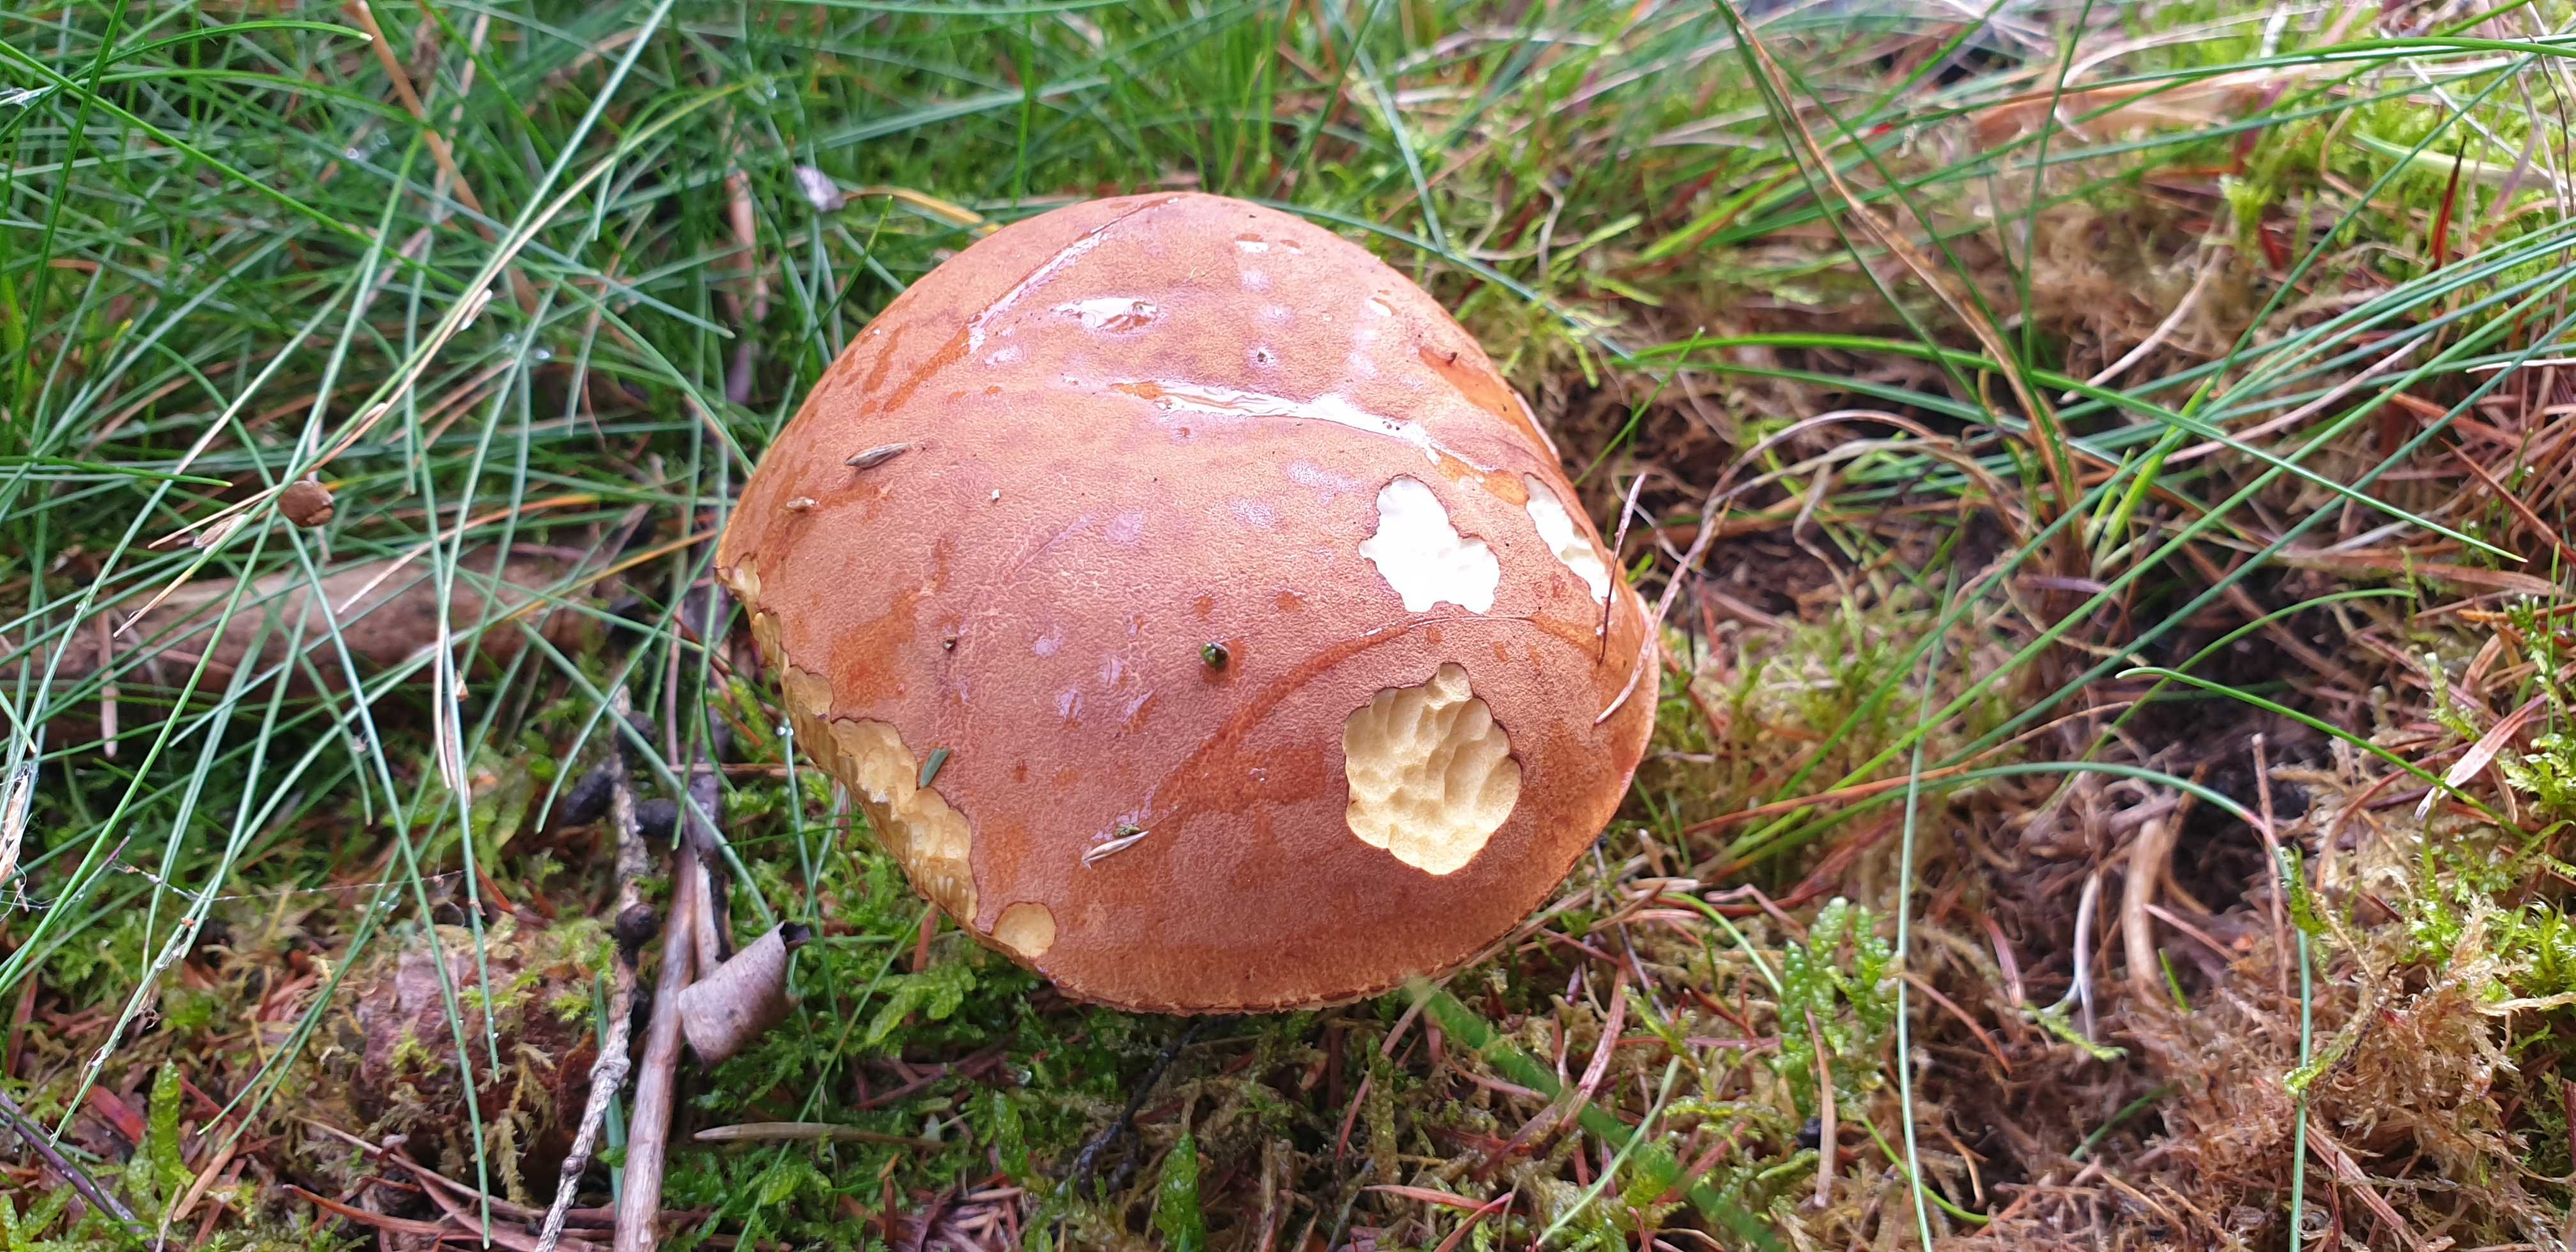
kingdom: Fungi
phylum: Basidiomycota
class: Agaricomycetes
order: Boletales
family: Boletaceae
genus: Imleria
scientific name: Imleria badia
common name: brunstokket rørhat
